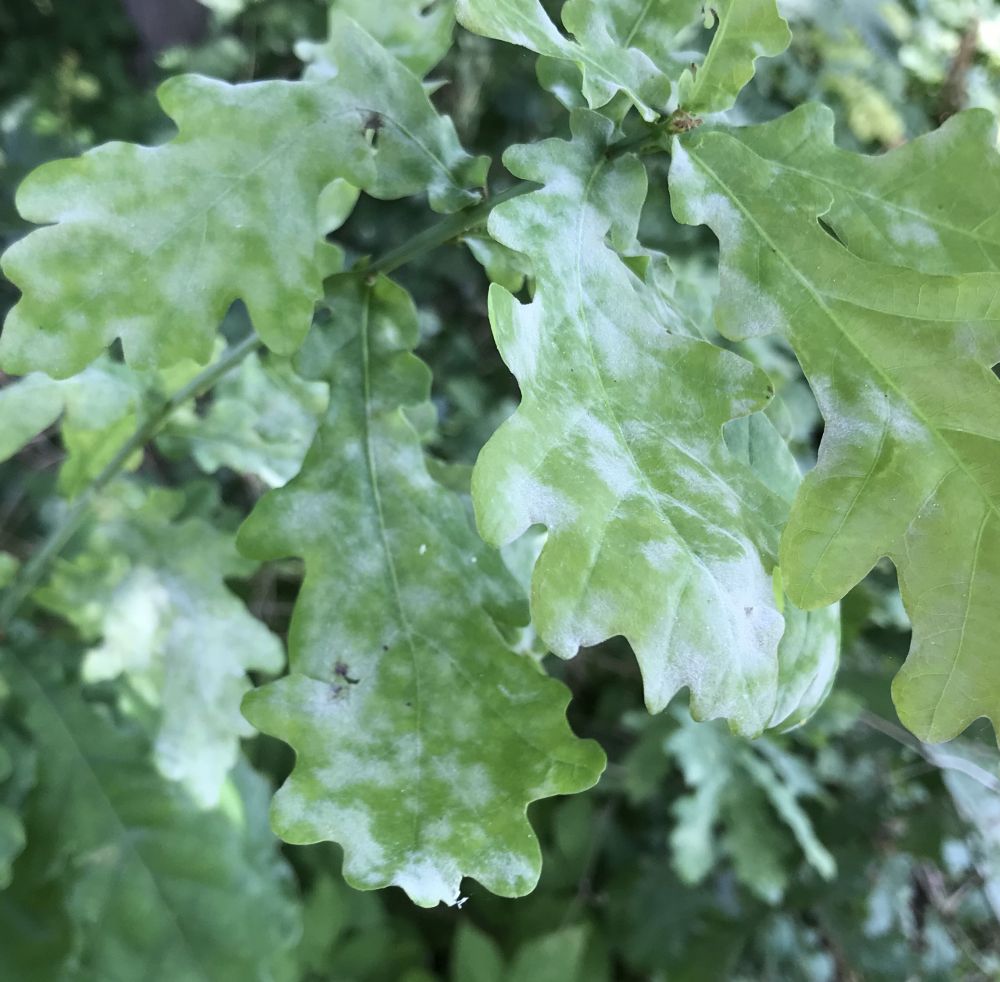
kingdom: Fungi
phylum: Ascomycota
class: Leotiomycetes
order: Helotiales
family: Erysiphaceae
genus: Erysiphe
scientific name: Erysiphe alphitoides
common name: ege-meldug
